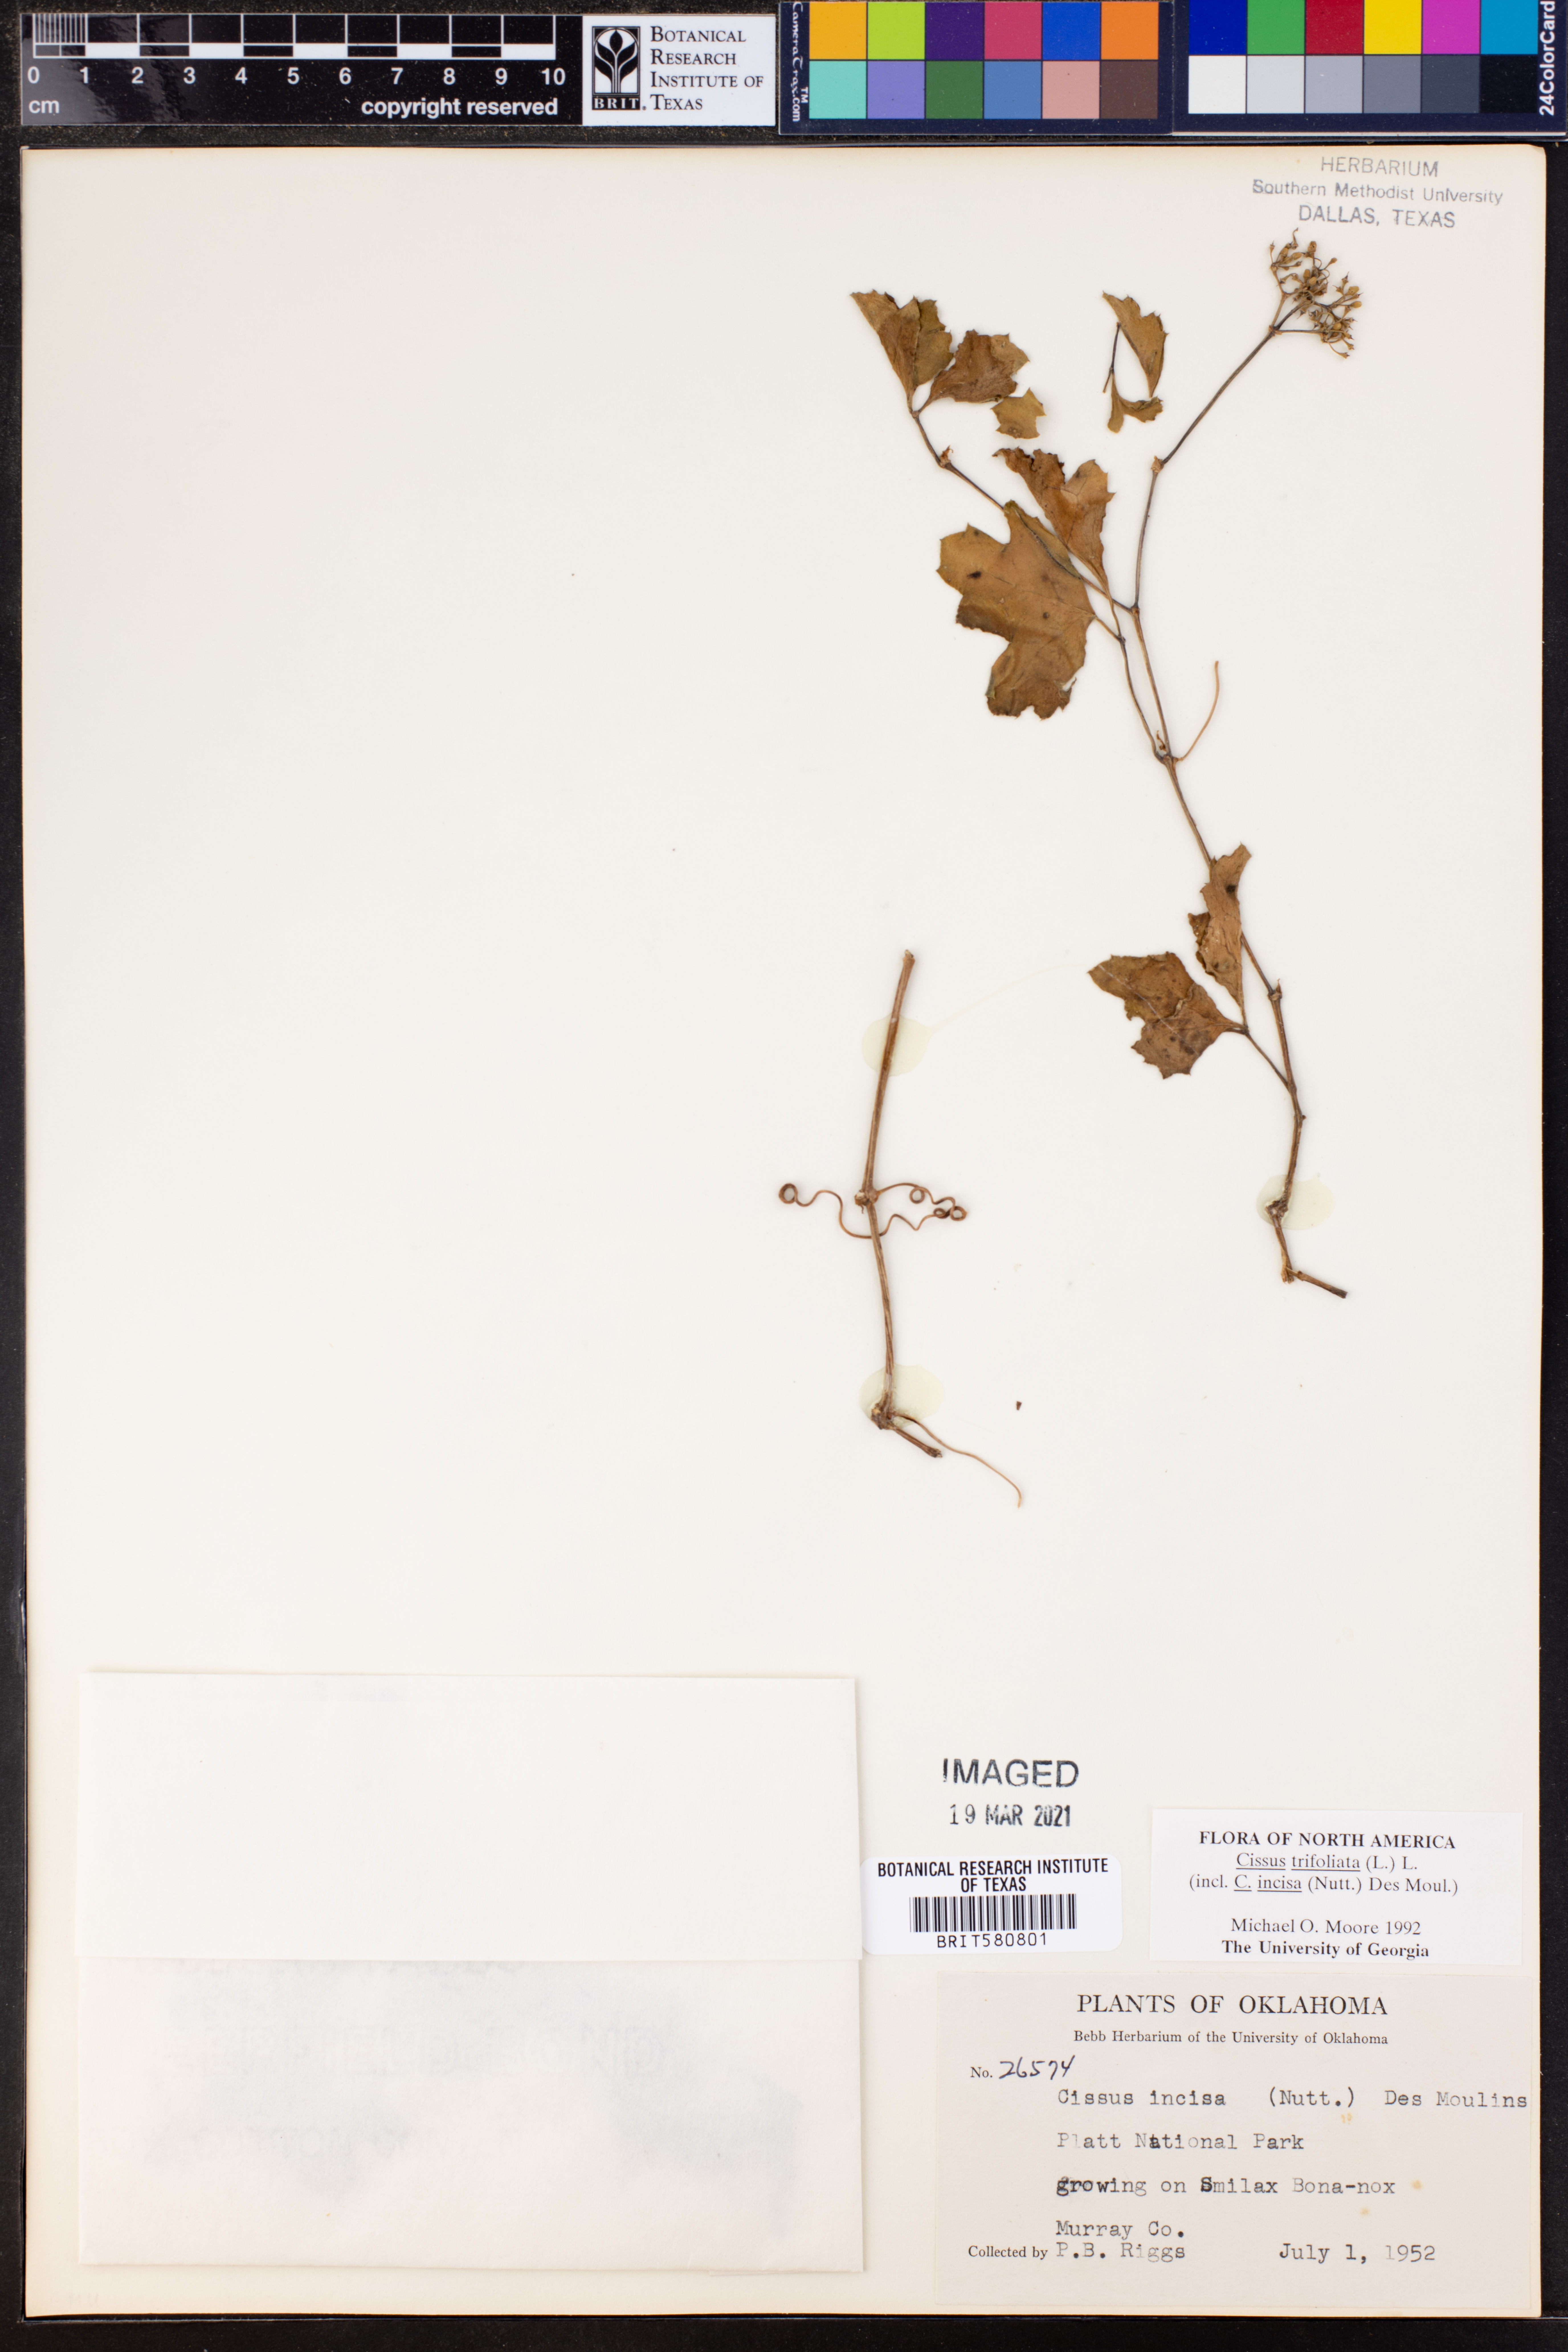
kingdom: Plantae
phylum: Tracheophyta
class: Magnoliopsida
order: Vitales
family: Vitaceae
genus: Cissus
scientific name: Cissus trifoliata
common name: Vine-sorrel
